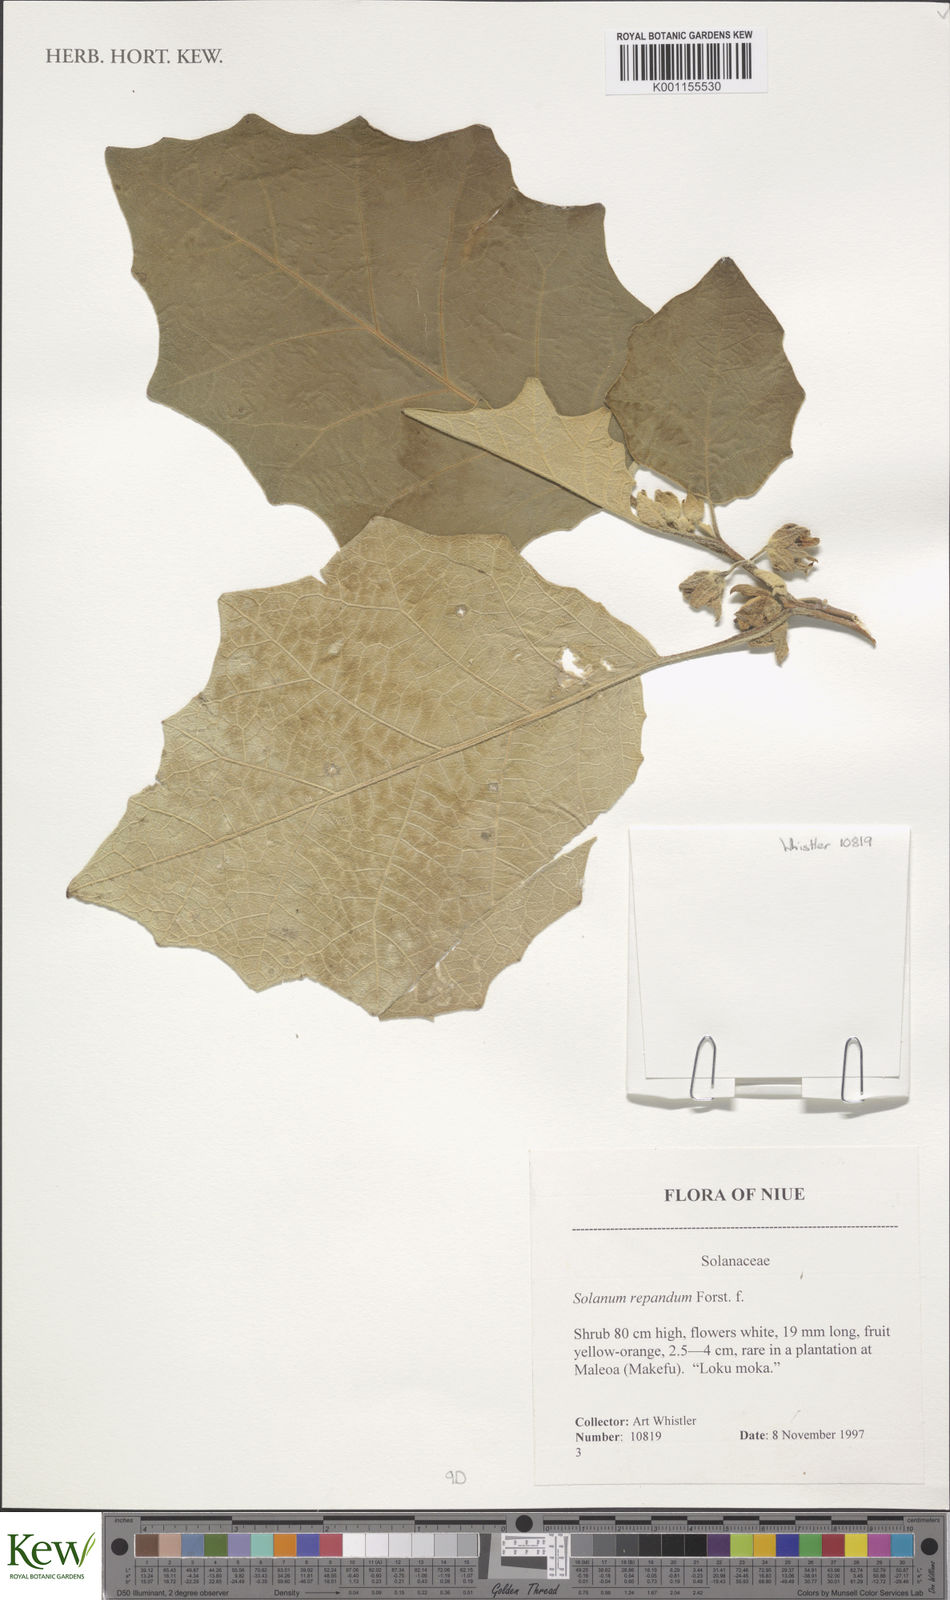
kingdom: Plantae
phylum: Tracheophyta
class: Magnoliopsida
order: Solanales
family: Solanaceae
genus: Solanum
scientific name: Solanum repandum
